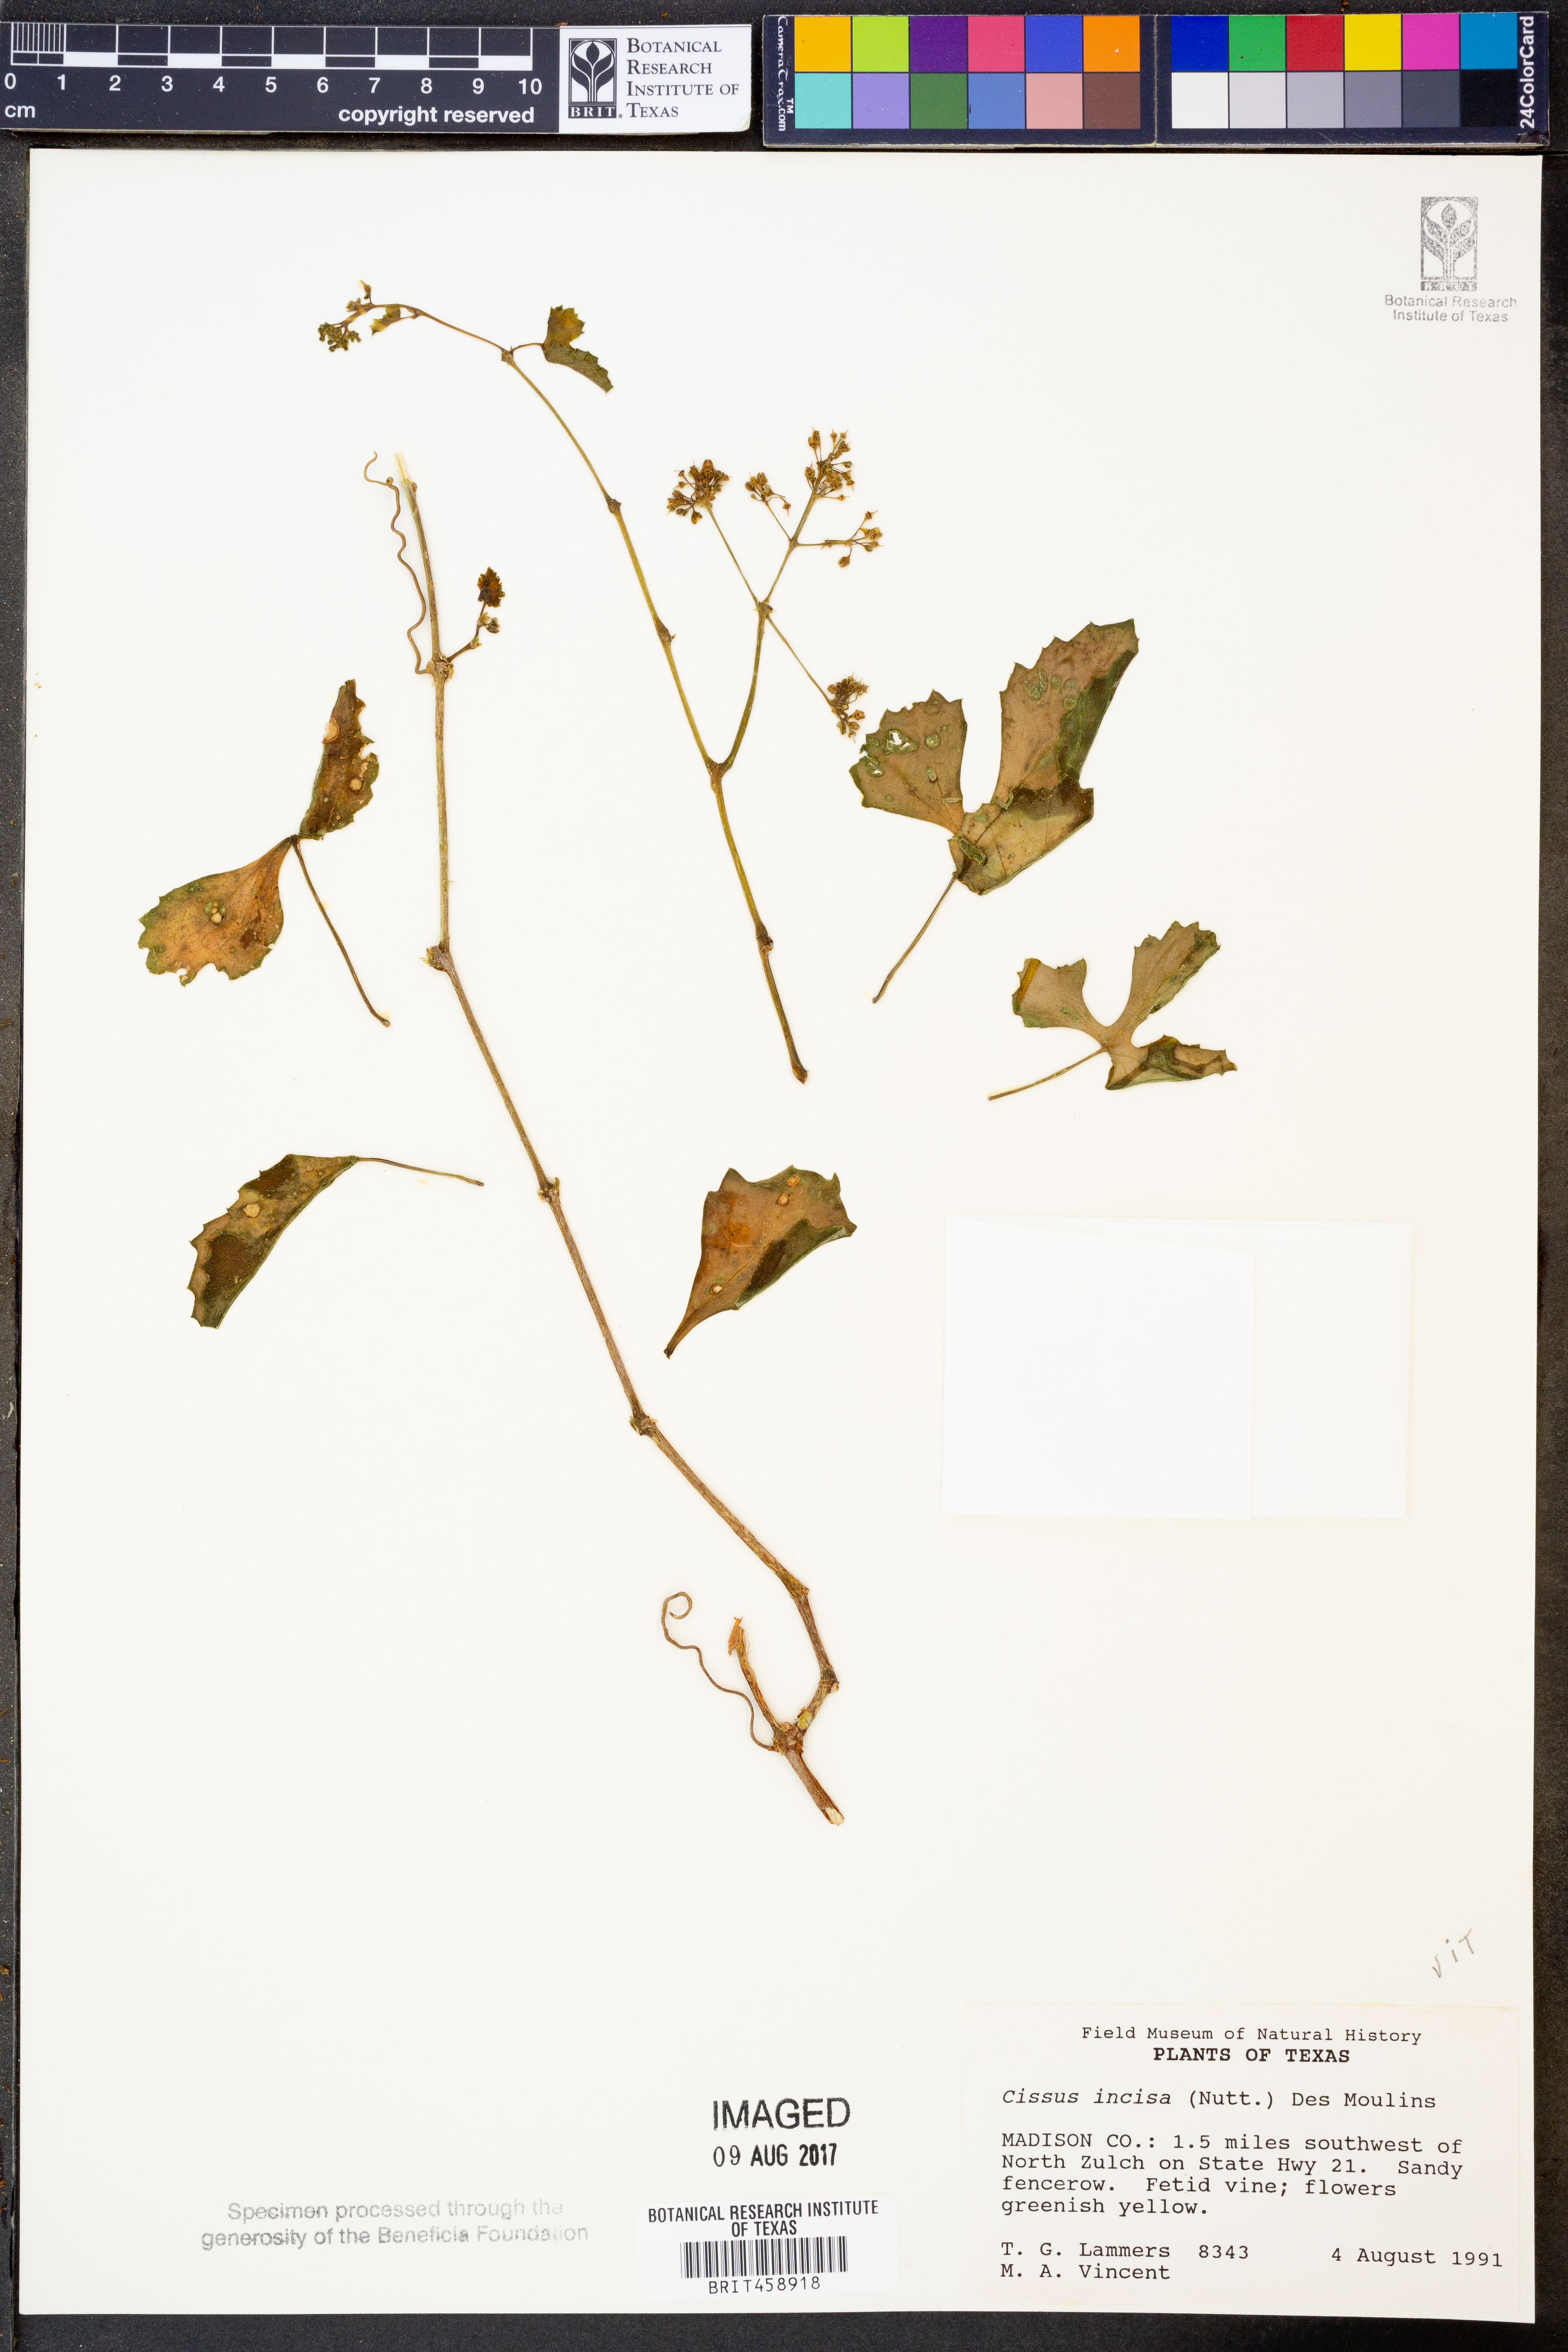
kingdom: Plantae
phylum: Tracheophyta
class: Magnoliopsida
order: Vitales
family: Vitaceae
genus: Cissus
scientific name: Cissus trifoliata
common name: Vine-sorrel
